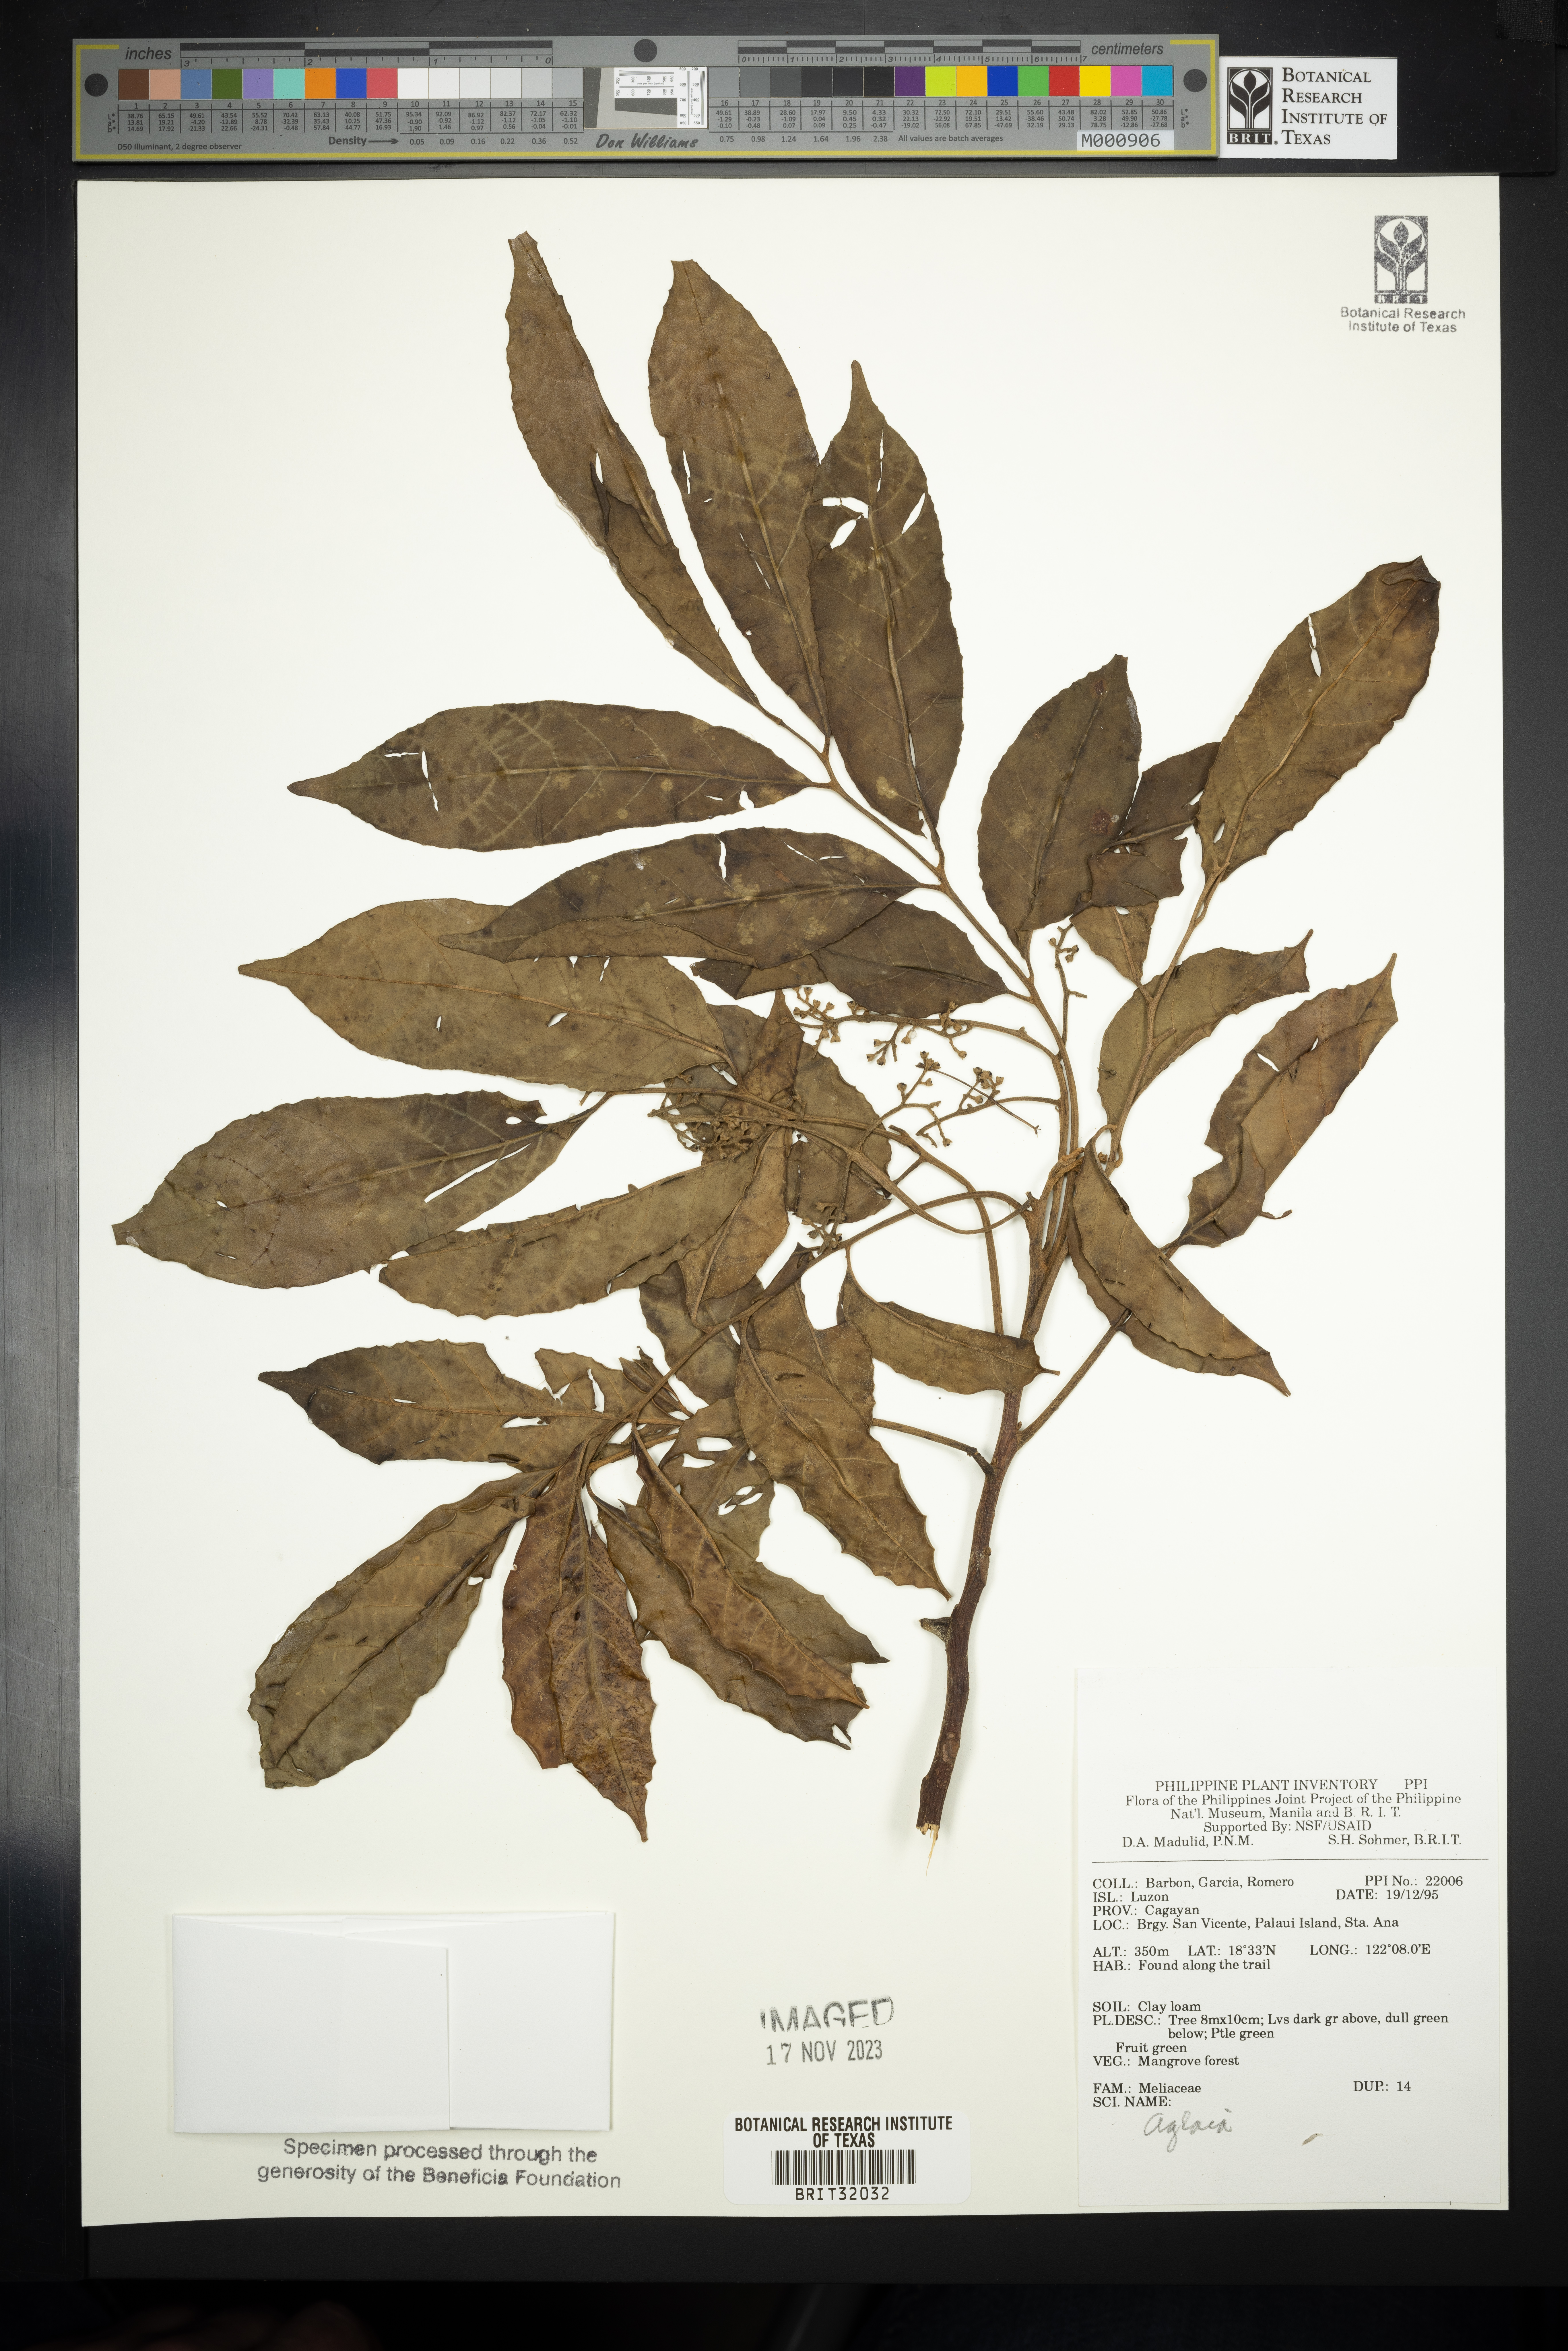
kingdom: Plantae
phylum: Tracheophyta
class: Magnoliopsida
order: Sapindales
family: Meliaceae
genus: Aglaia
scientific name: Aglaia
